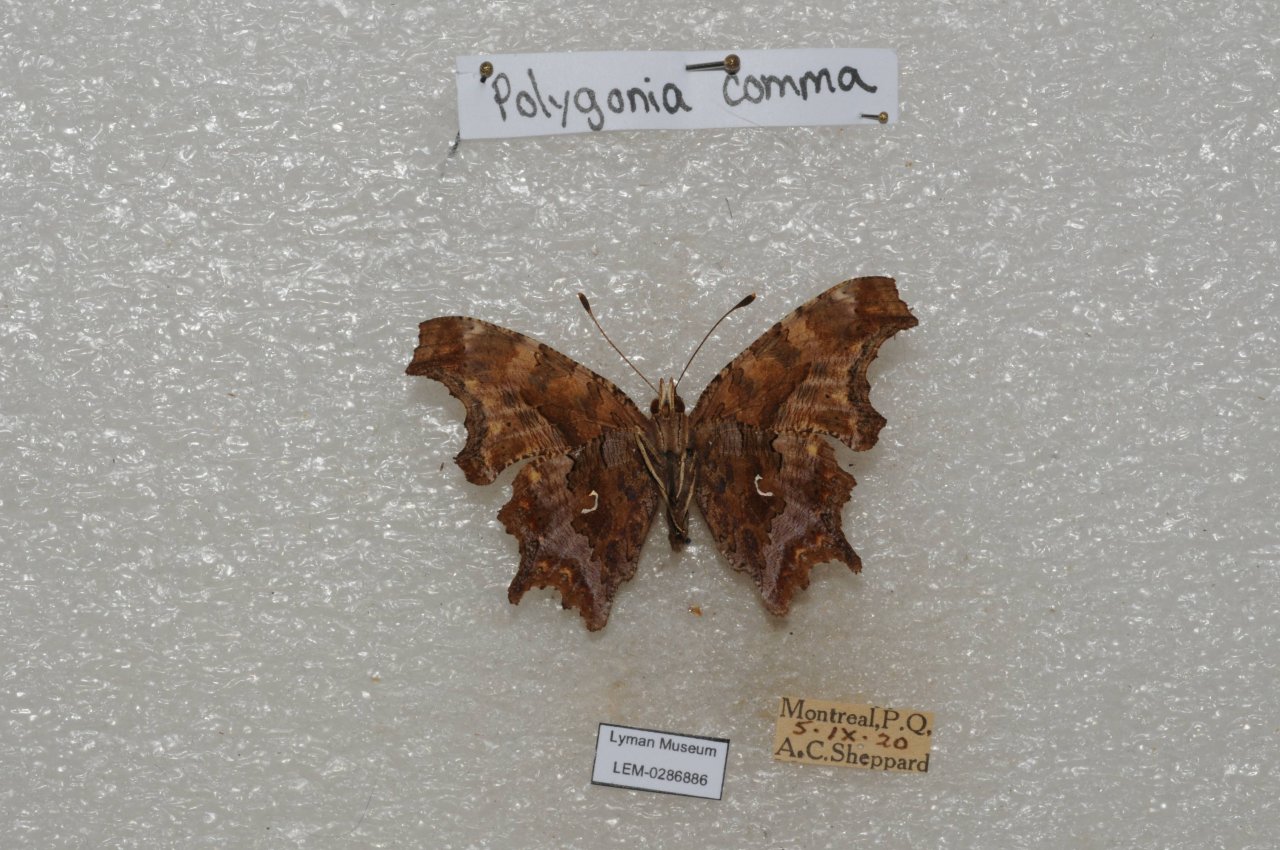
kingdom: Animalia
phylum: Arthropoda
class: Insecta
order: Lepidoptera
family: Nymphalidae
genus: Polygonia
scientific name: Polygonia comma
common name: Eastern Comma
